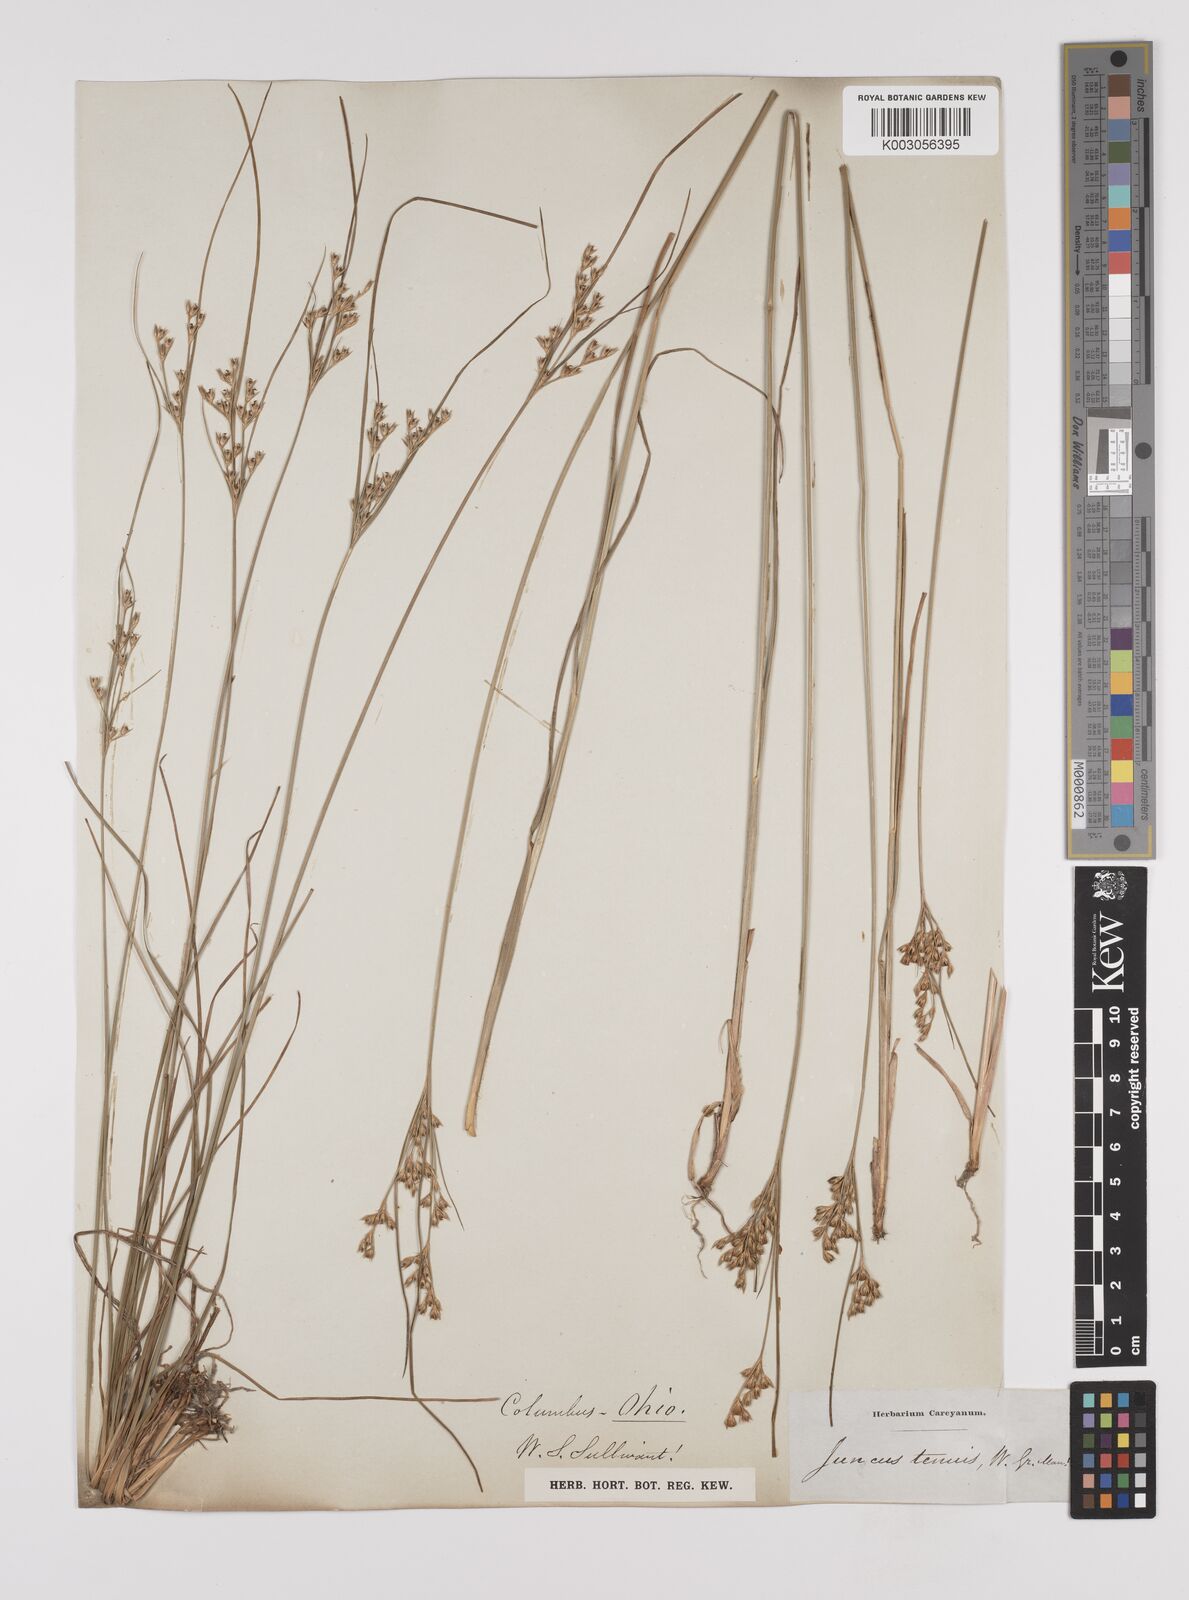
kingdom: Plantae
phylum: Tracheophyta
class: Liliopsida
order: Poales
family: Juncaceae
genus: Juncus
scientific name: Juncus tenuis
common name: Slender rush
